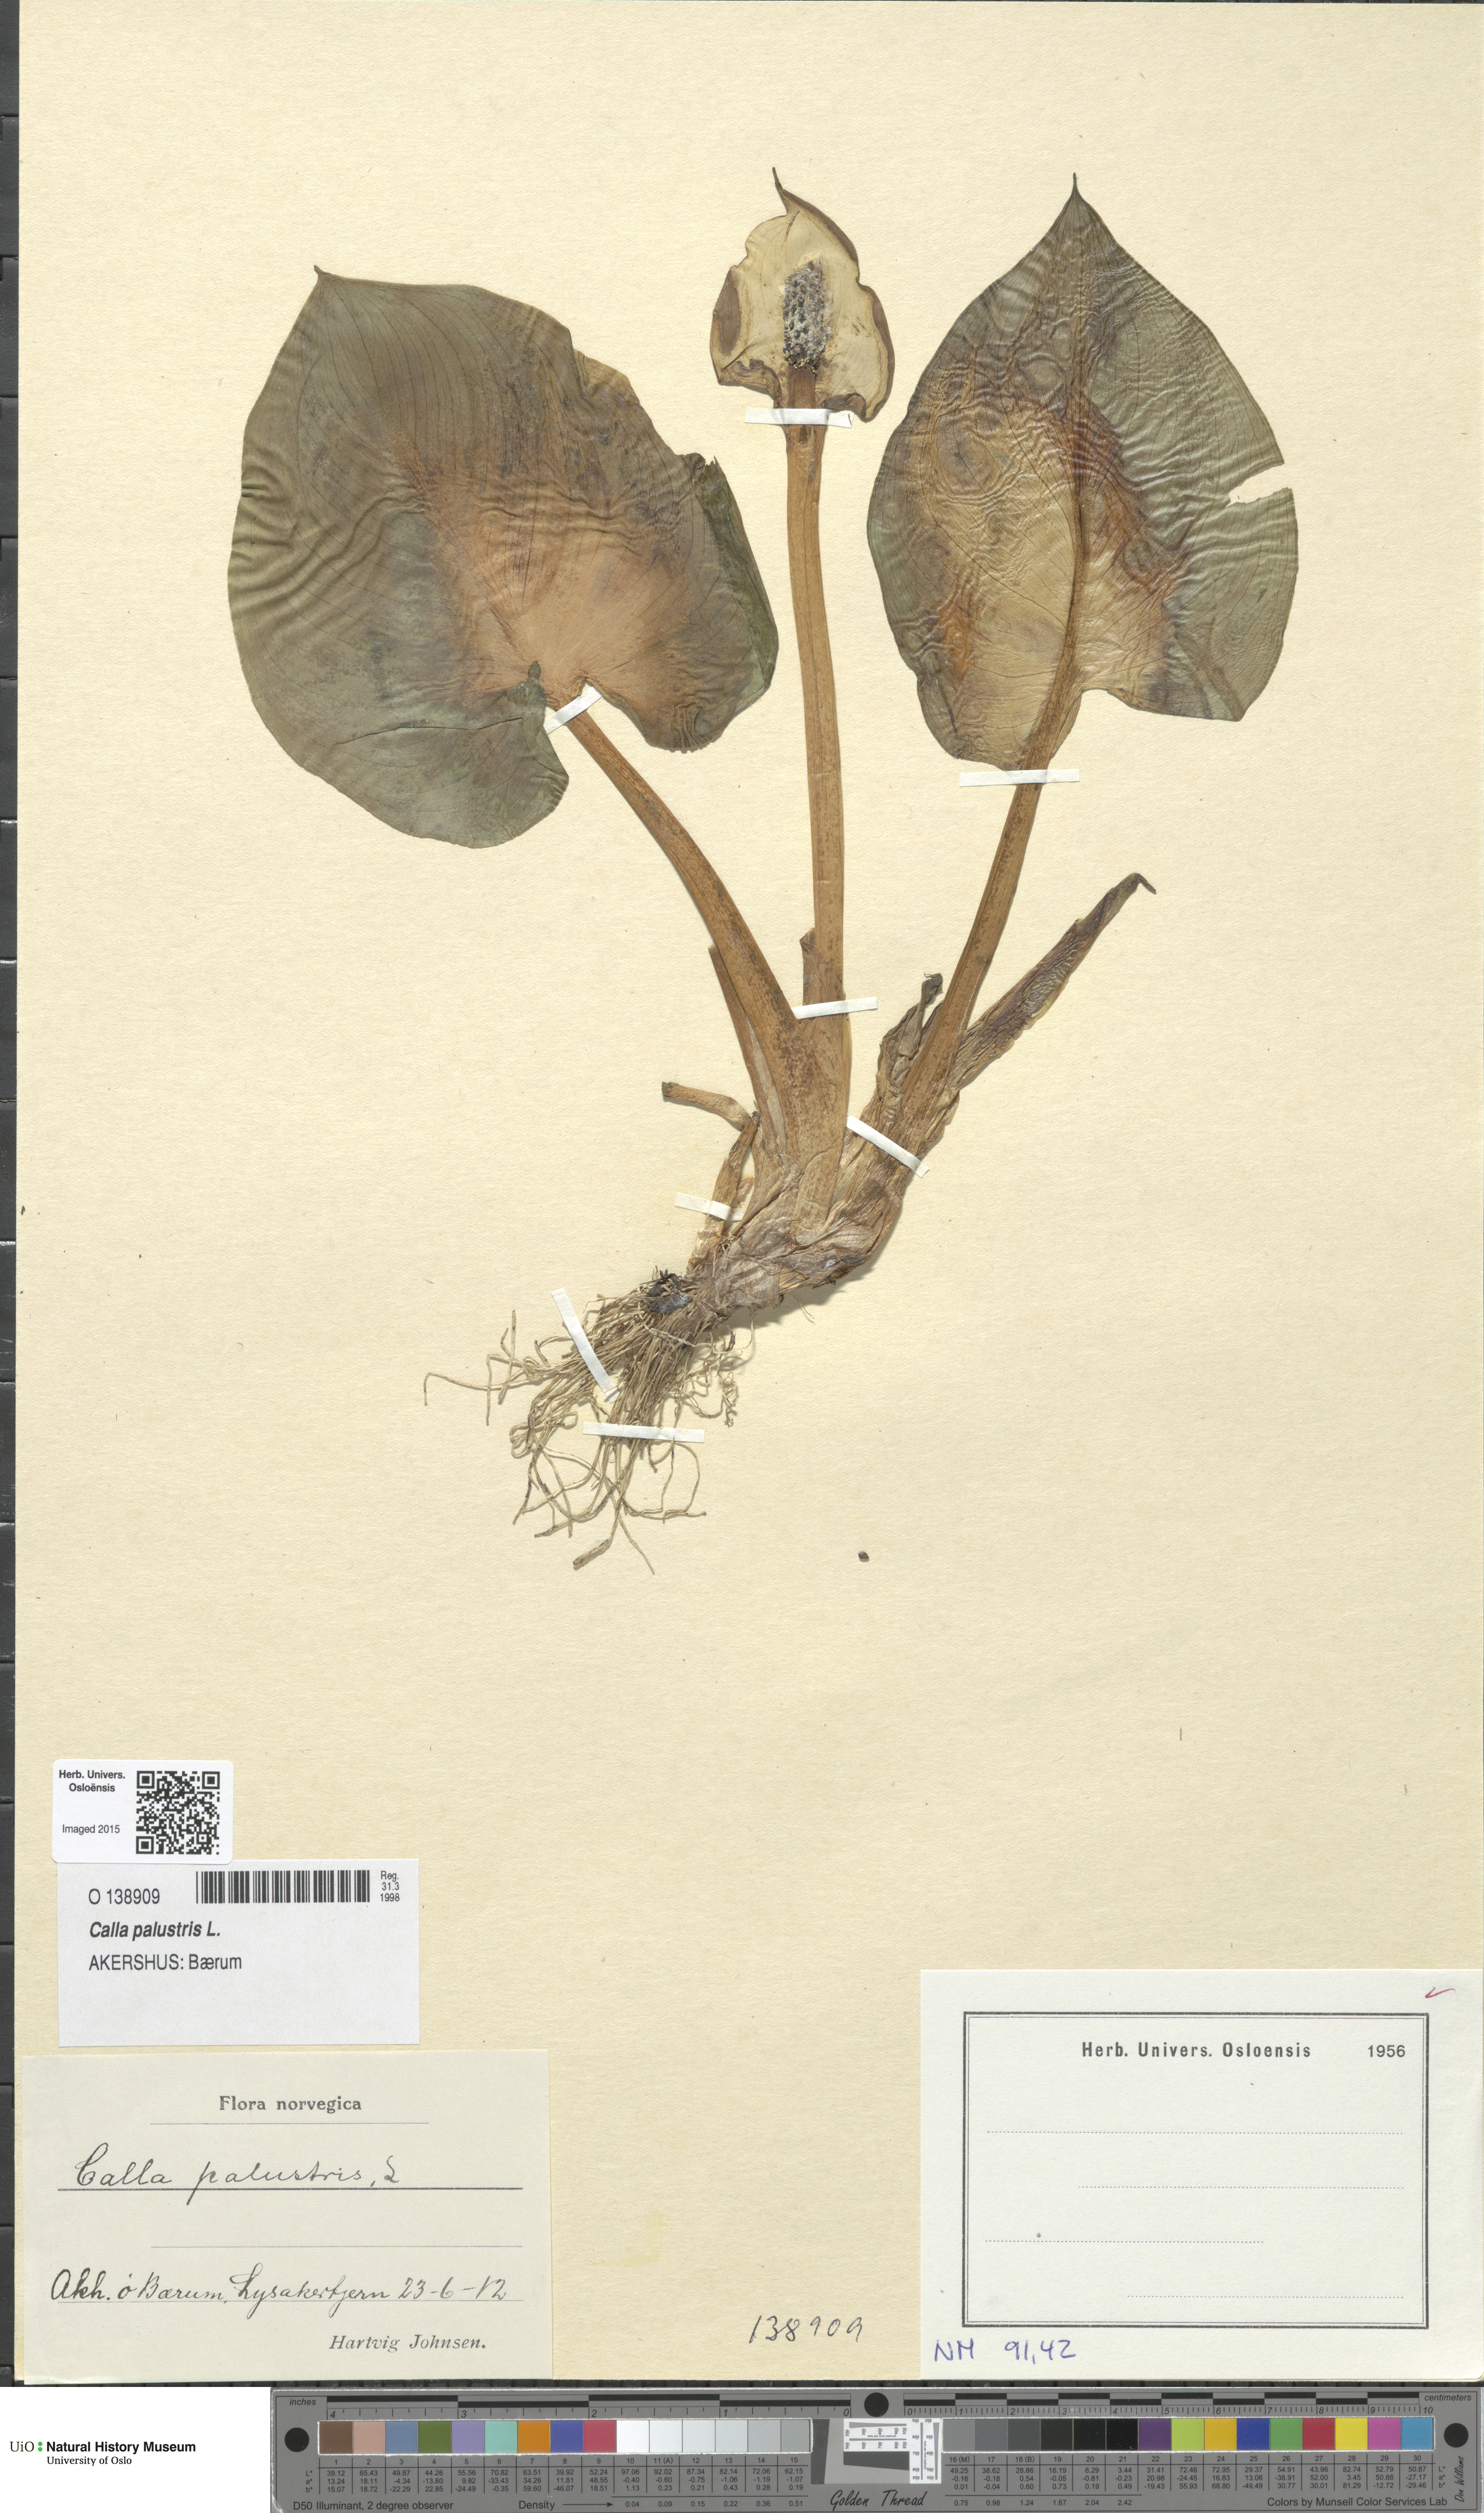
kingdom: Plantae
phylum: Tracheophyta
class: Liliopsida
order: Alismatales
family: Araceae
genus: Calla
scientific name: Calla palustris
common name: Bog arum
